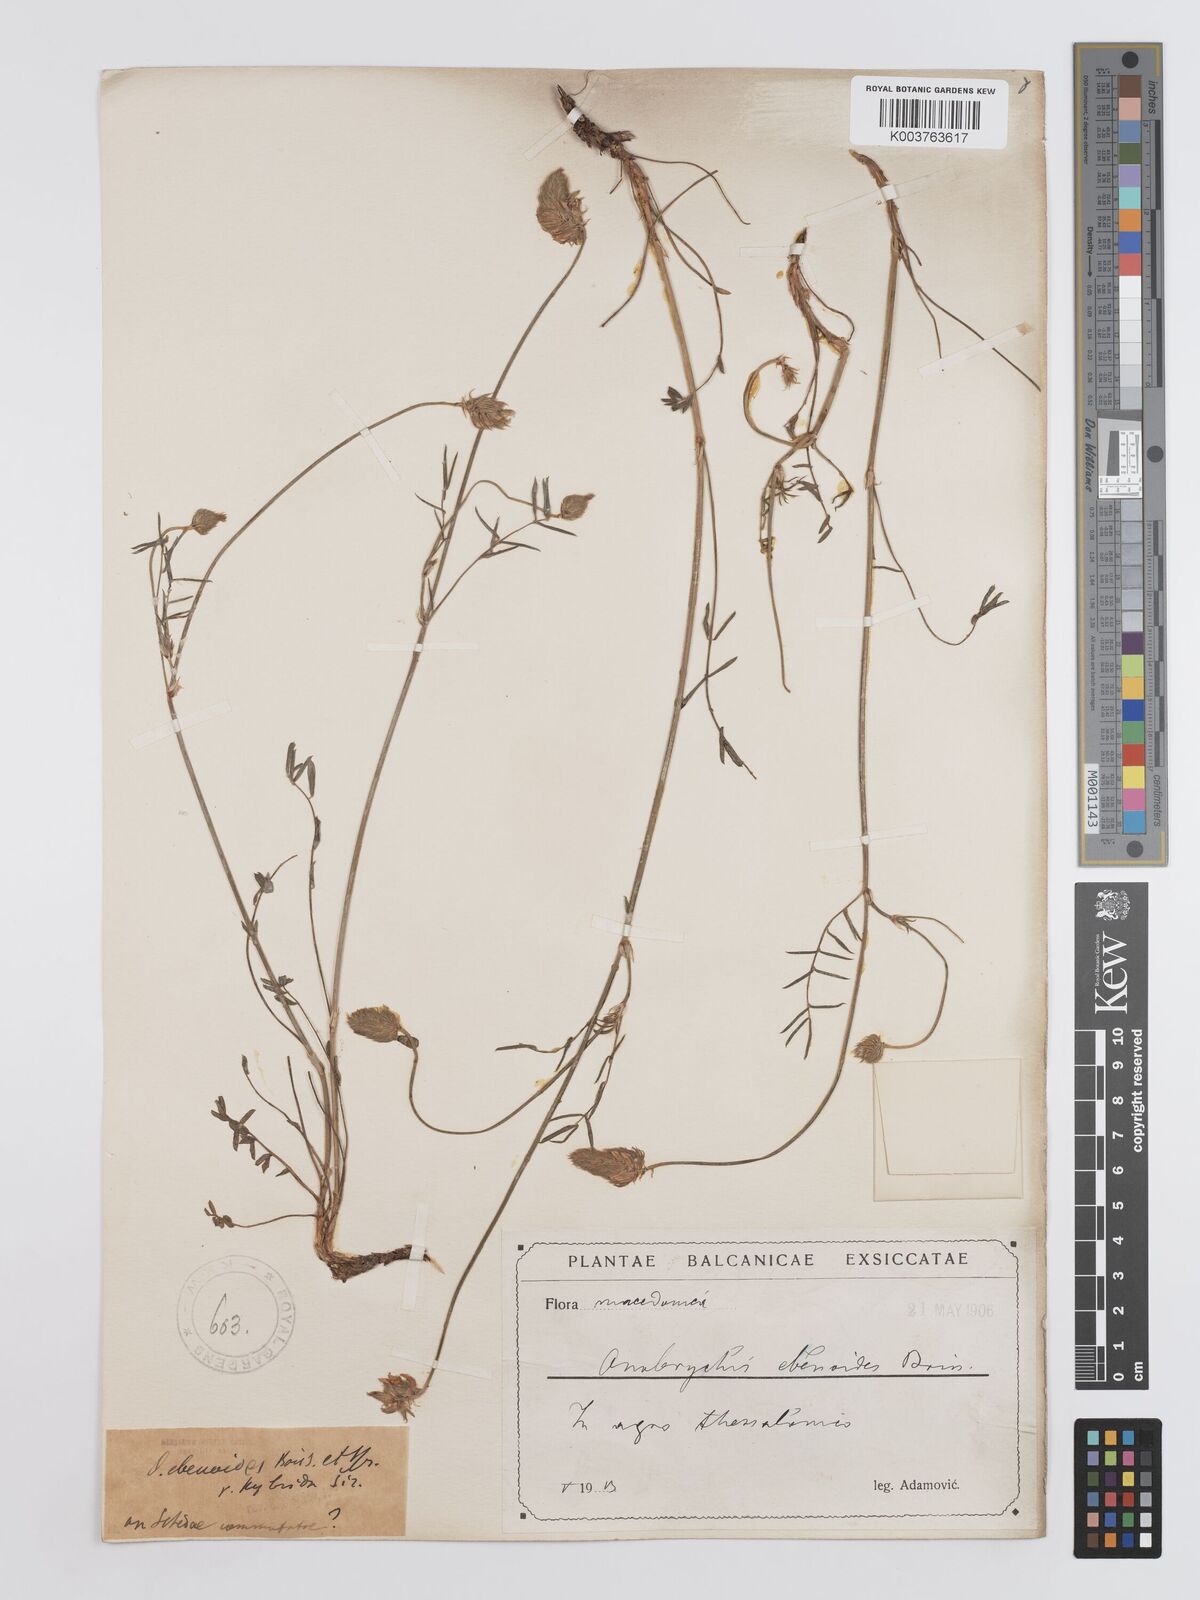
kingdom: Plantae
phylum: Tracheophyta
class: Magnoliopsida
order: Fabales
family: Fabaceae
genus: Onobrychis
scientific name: Onobrychis ebenoides
